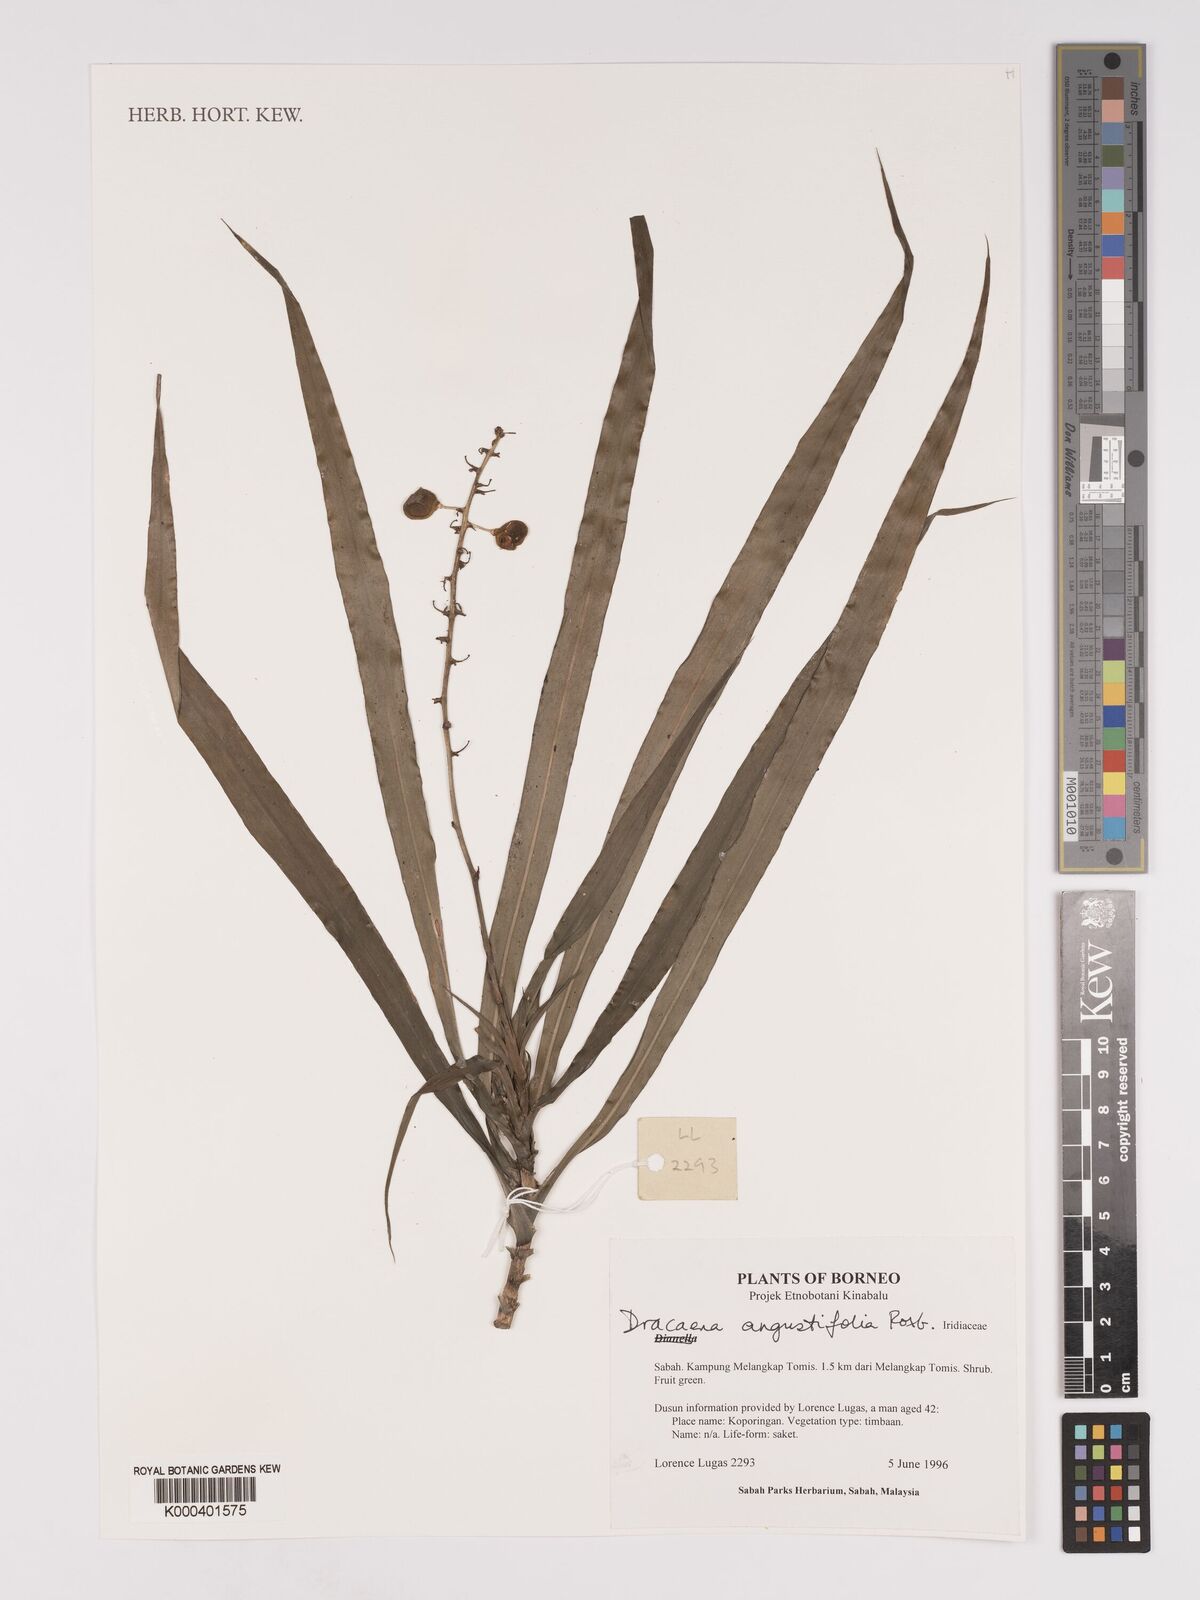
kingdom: Plantae
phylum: Tracheophyta
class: Liliopsida
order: Asparagales
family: Asparagaceae
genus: Dracaena
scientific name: Dracaena angustifolia
